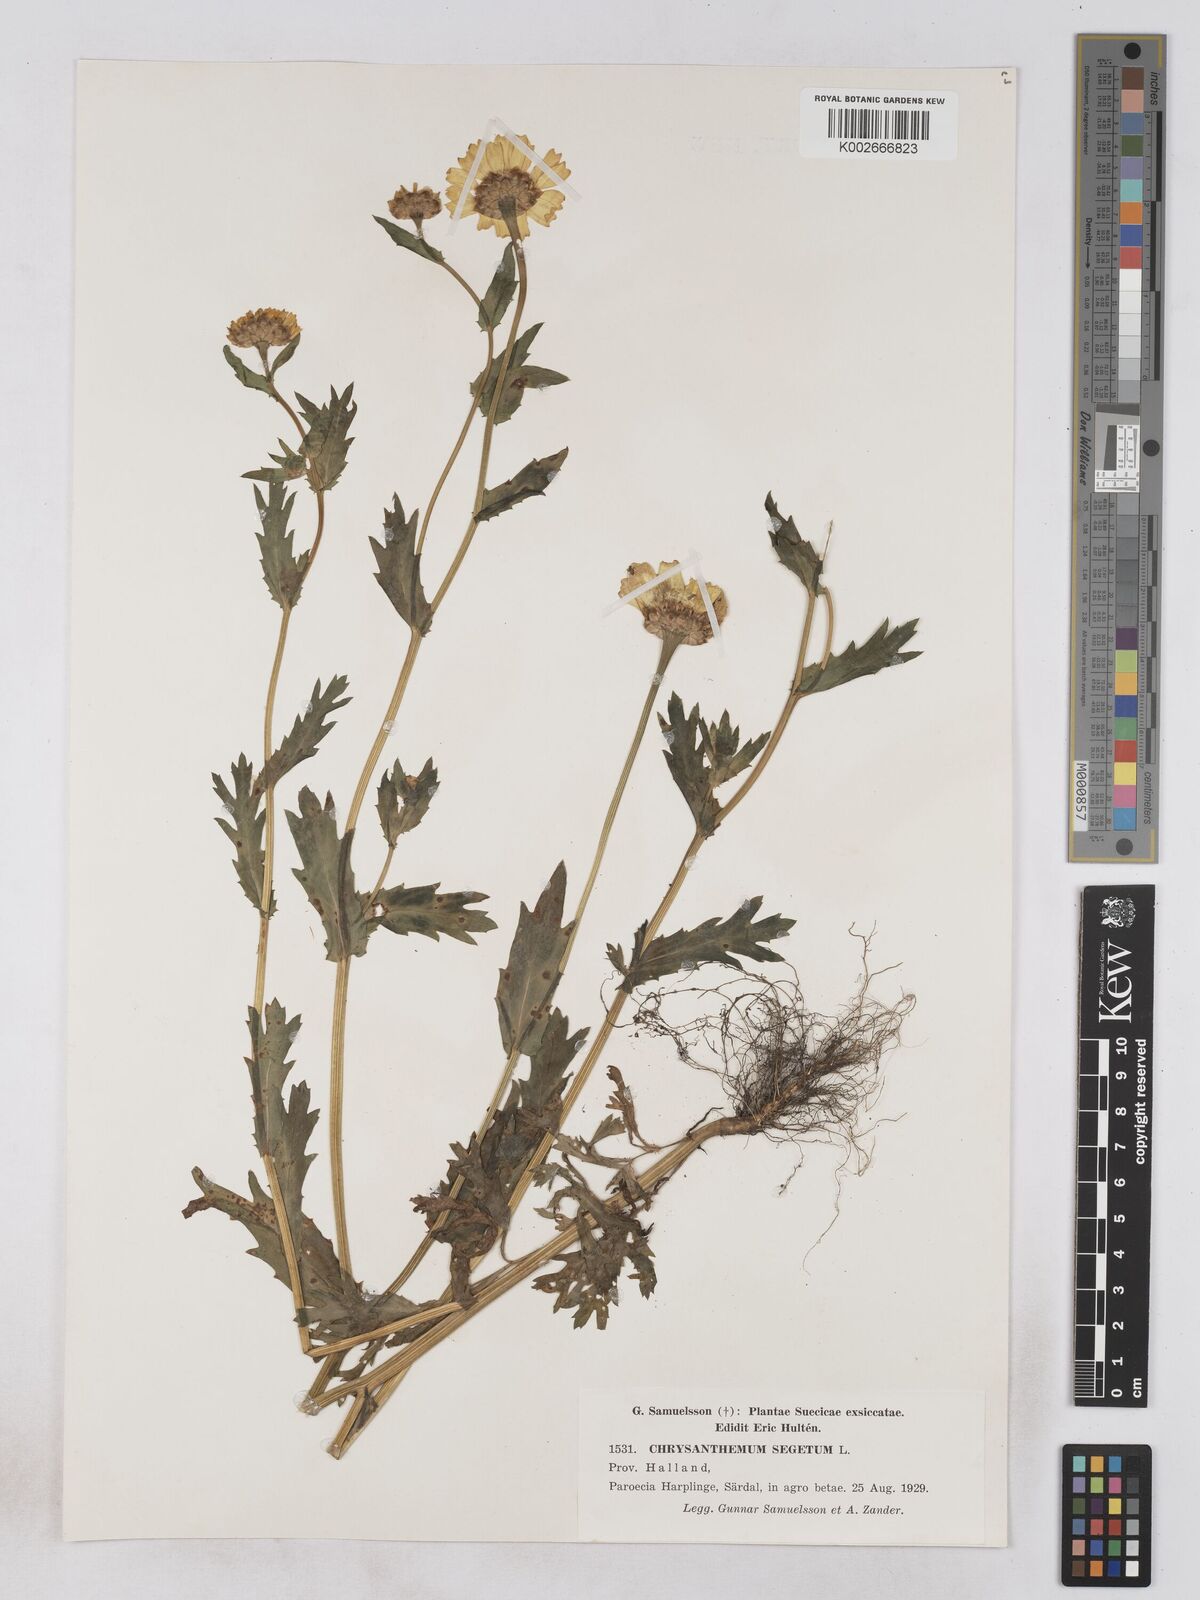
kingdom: Plantae
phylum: Tracheophyta
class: Magnoliopsida
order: Asterales
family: Asteraceae
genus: Glebionis
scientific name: Glebionis segetum
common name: Corndaisy
